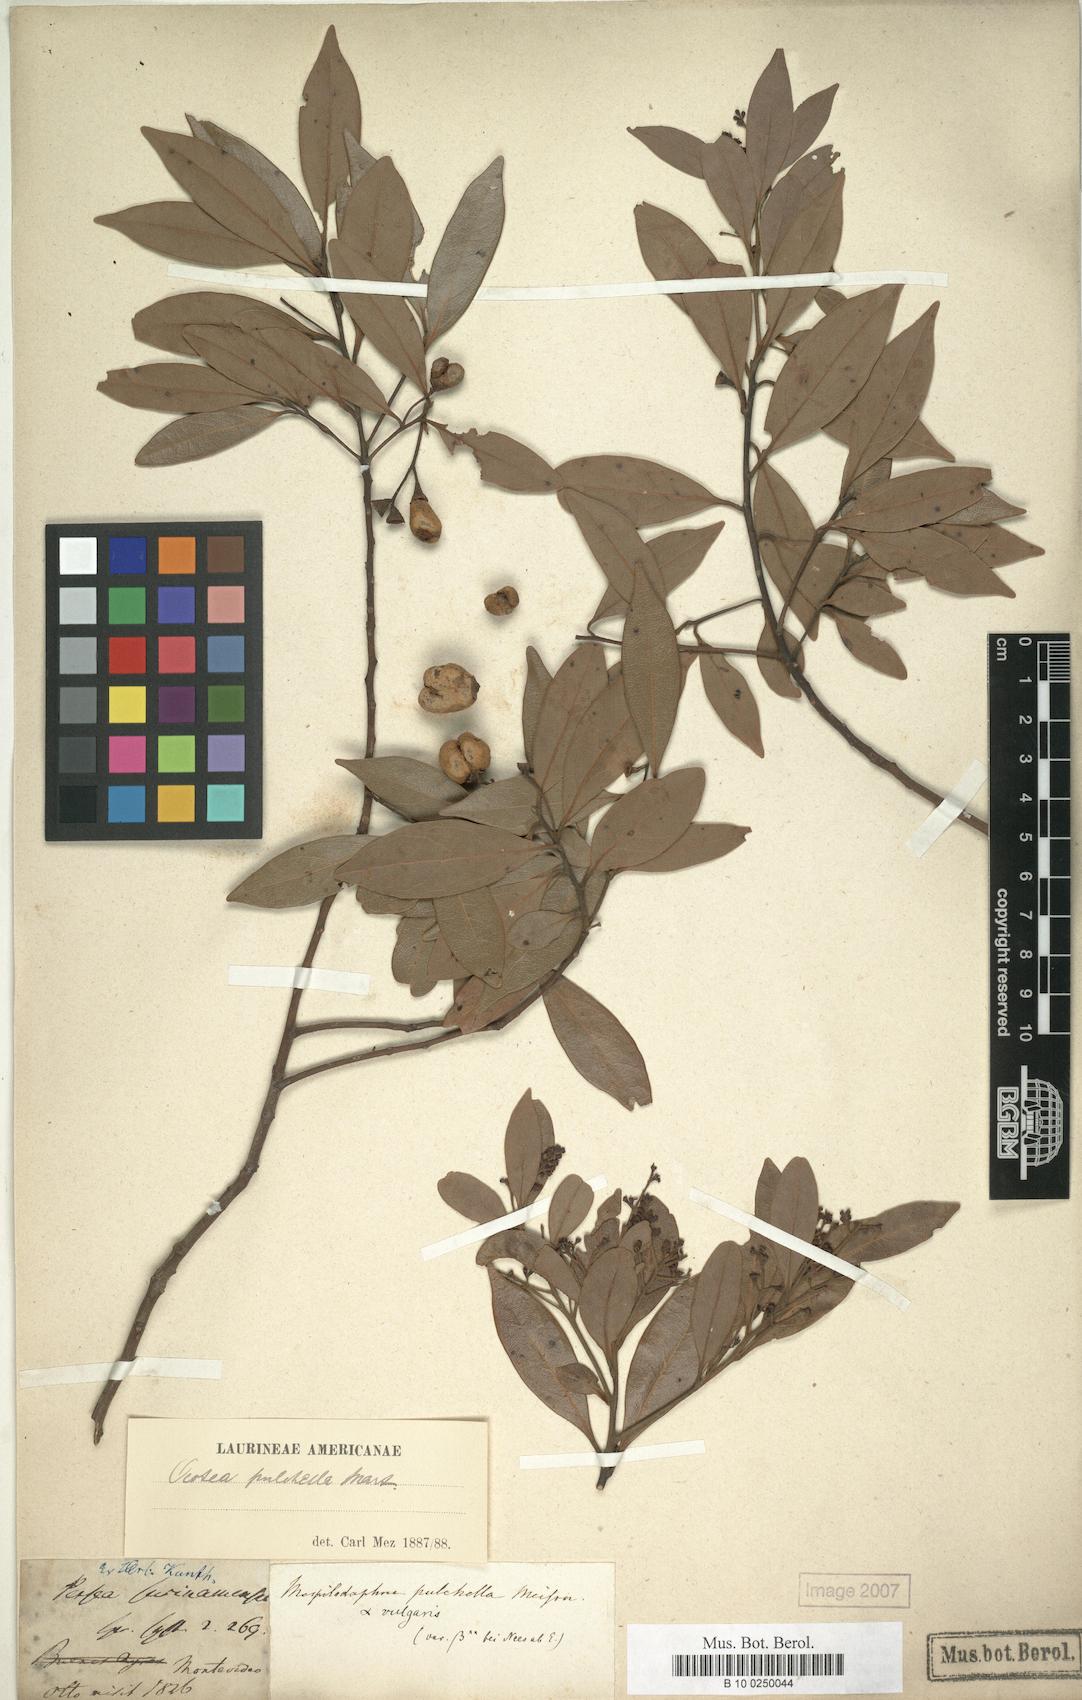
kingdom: Plantae
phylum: Tracheophyta
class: Magnoliopsida
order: Laurales
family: Lauraceae
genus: Mespilodaphne
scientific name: Mespilodaphne pulchella
